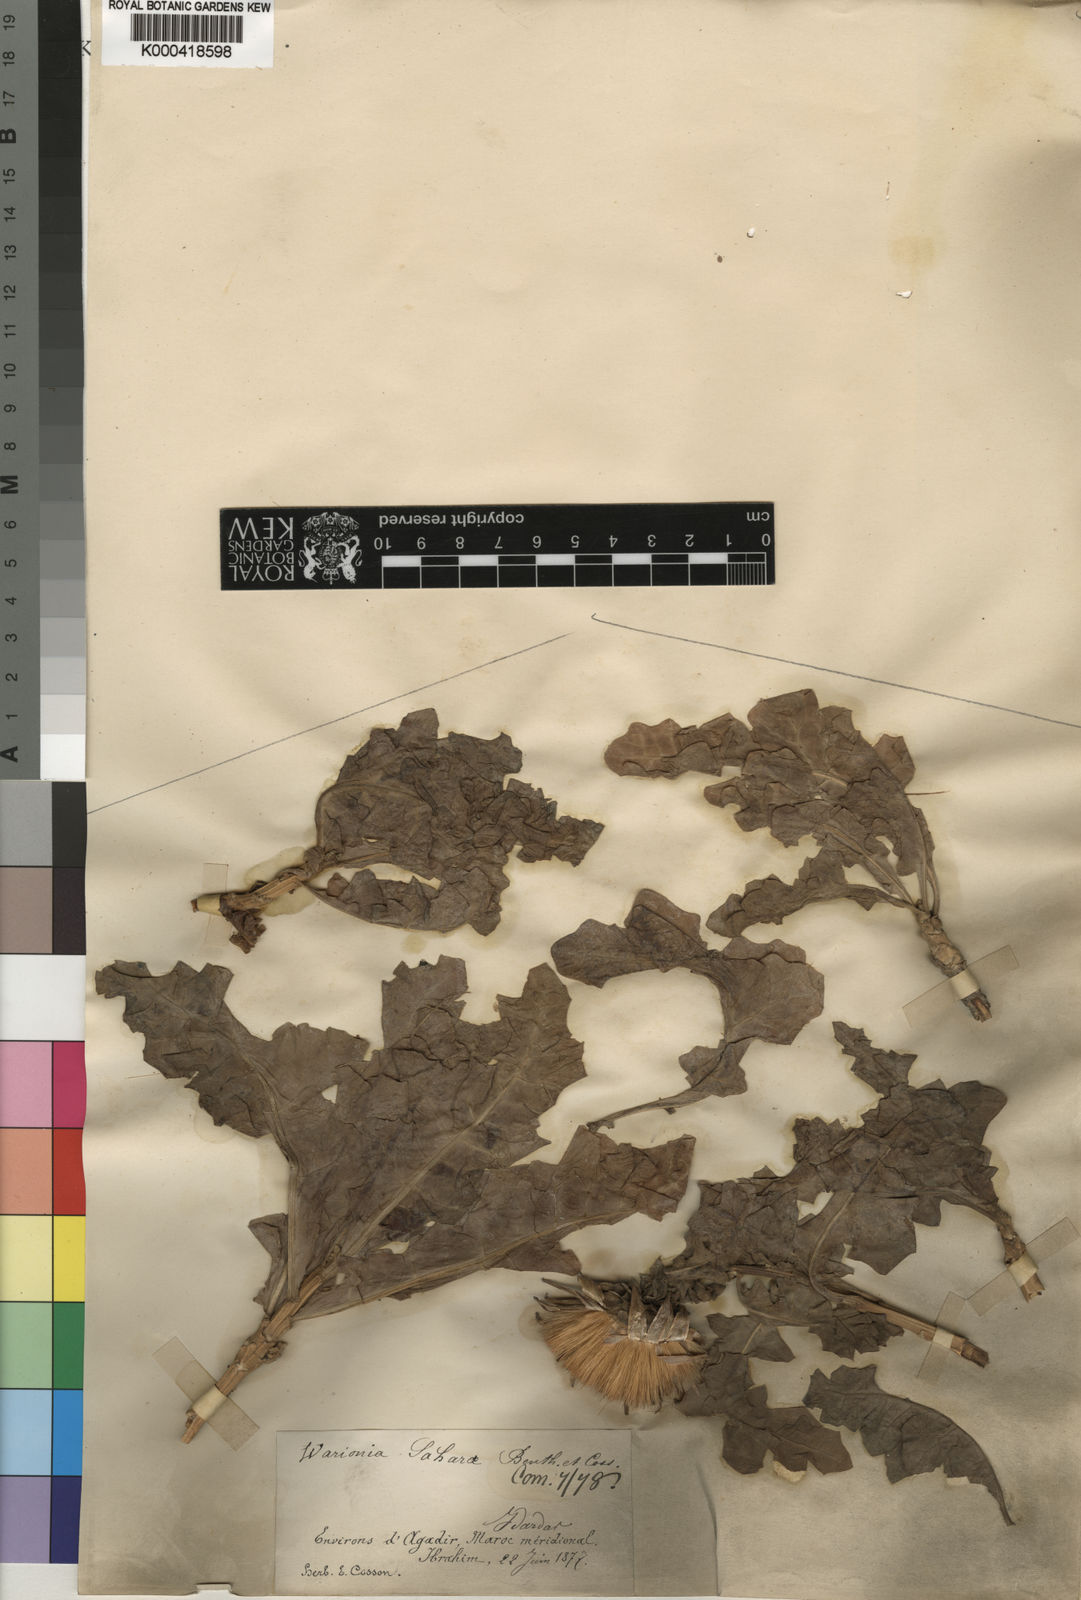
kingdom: Plantae
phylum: Tracheophyta
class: Magnoliopsida
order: Asterales
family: Asteraceae
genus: Warionia
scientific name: Warionia saharae
